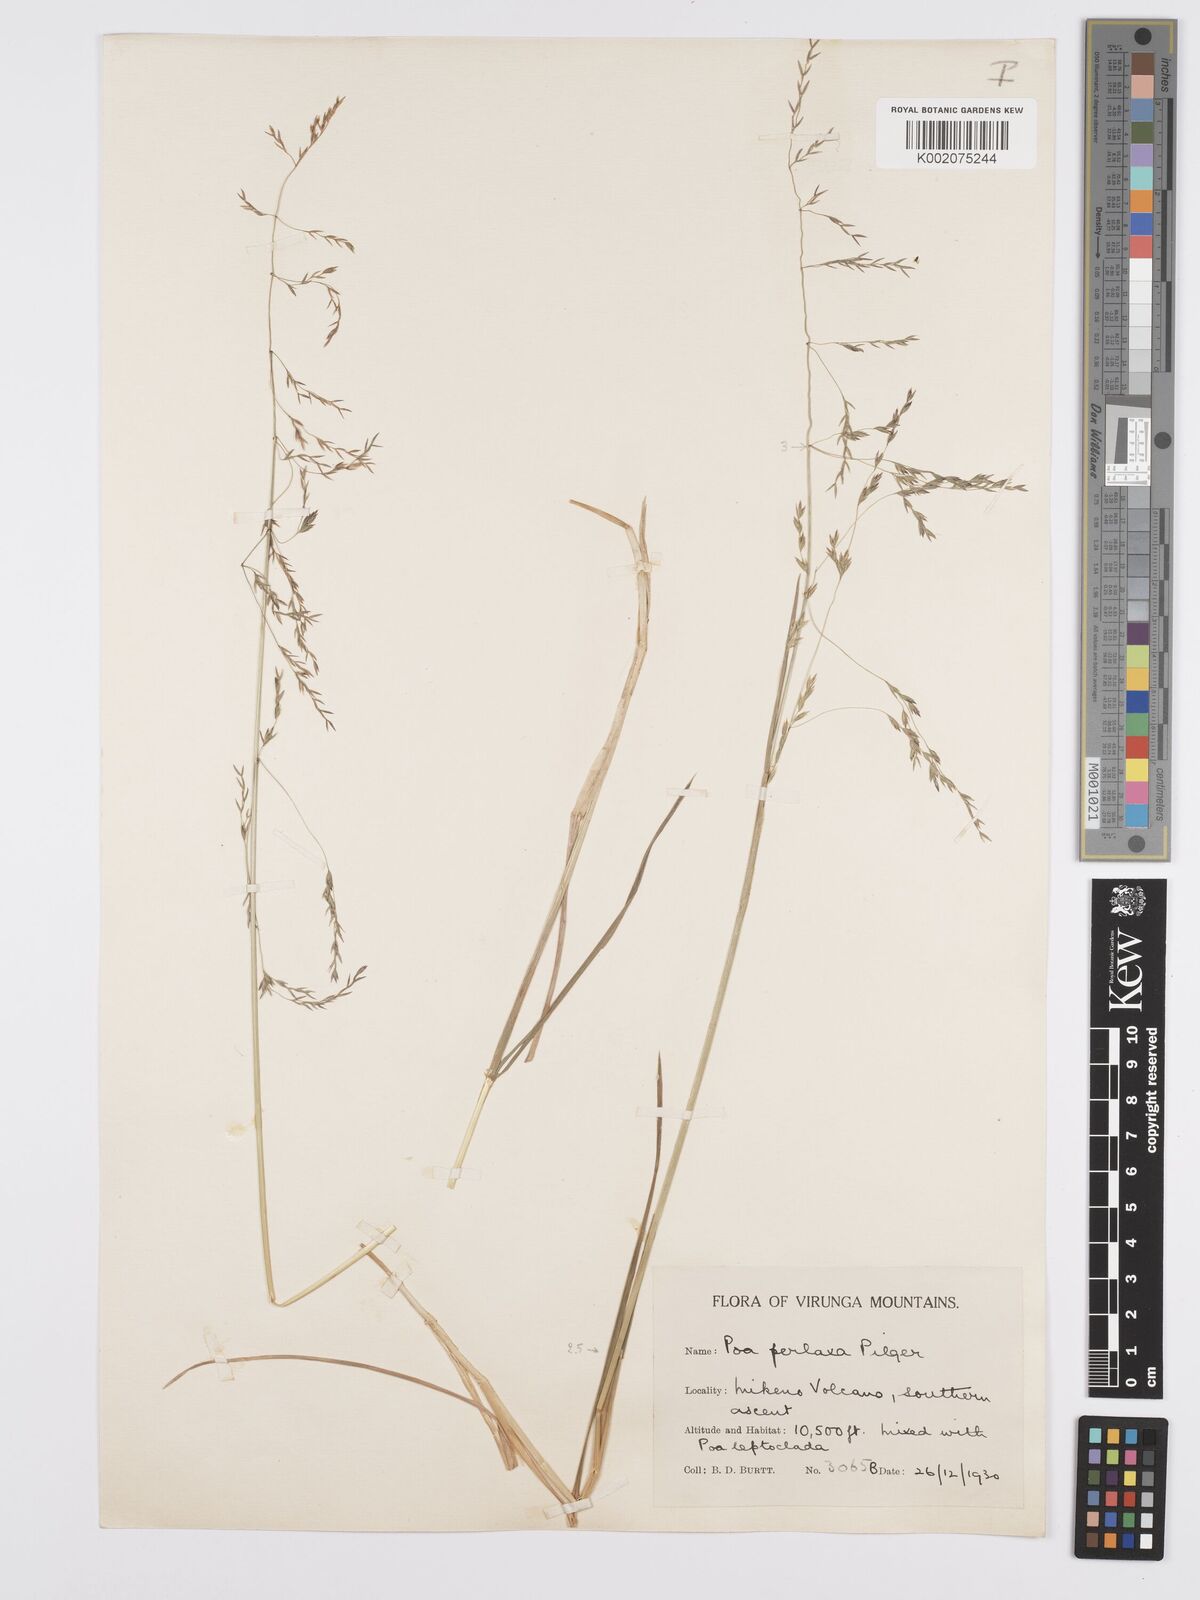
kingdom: Plantae
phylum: Tracheophyta
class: Liliopsida
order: Poales
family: Poaceae
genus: Poa
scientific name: Poa schimperiana
